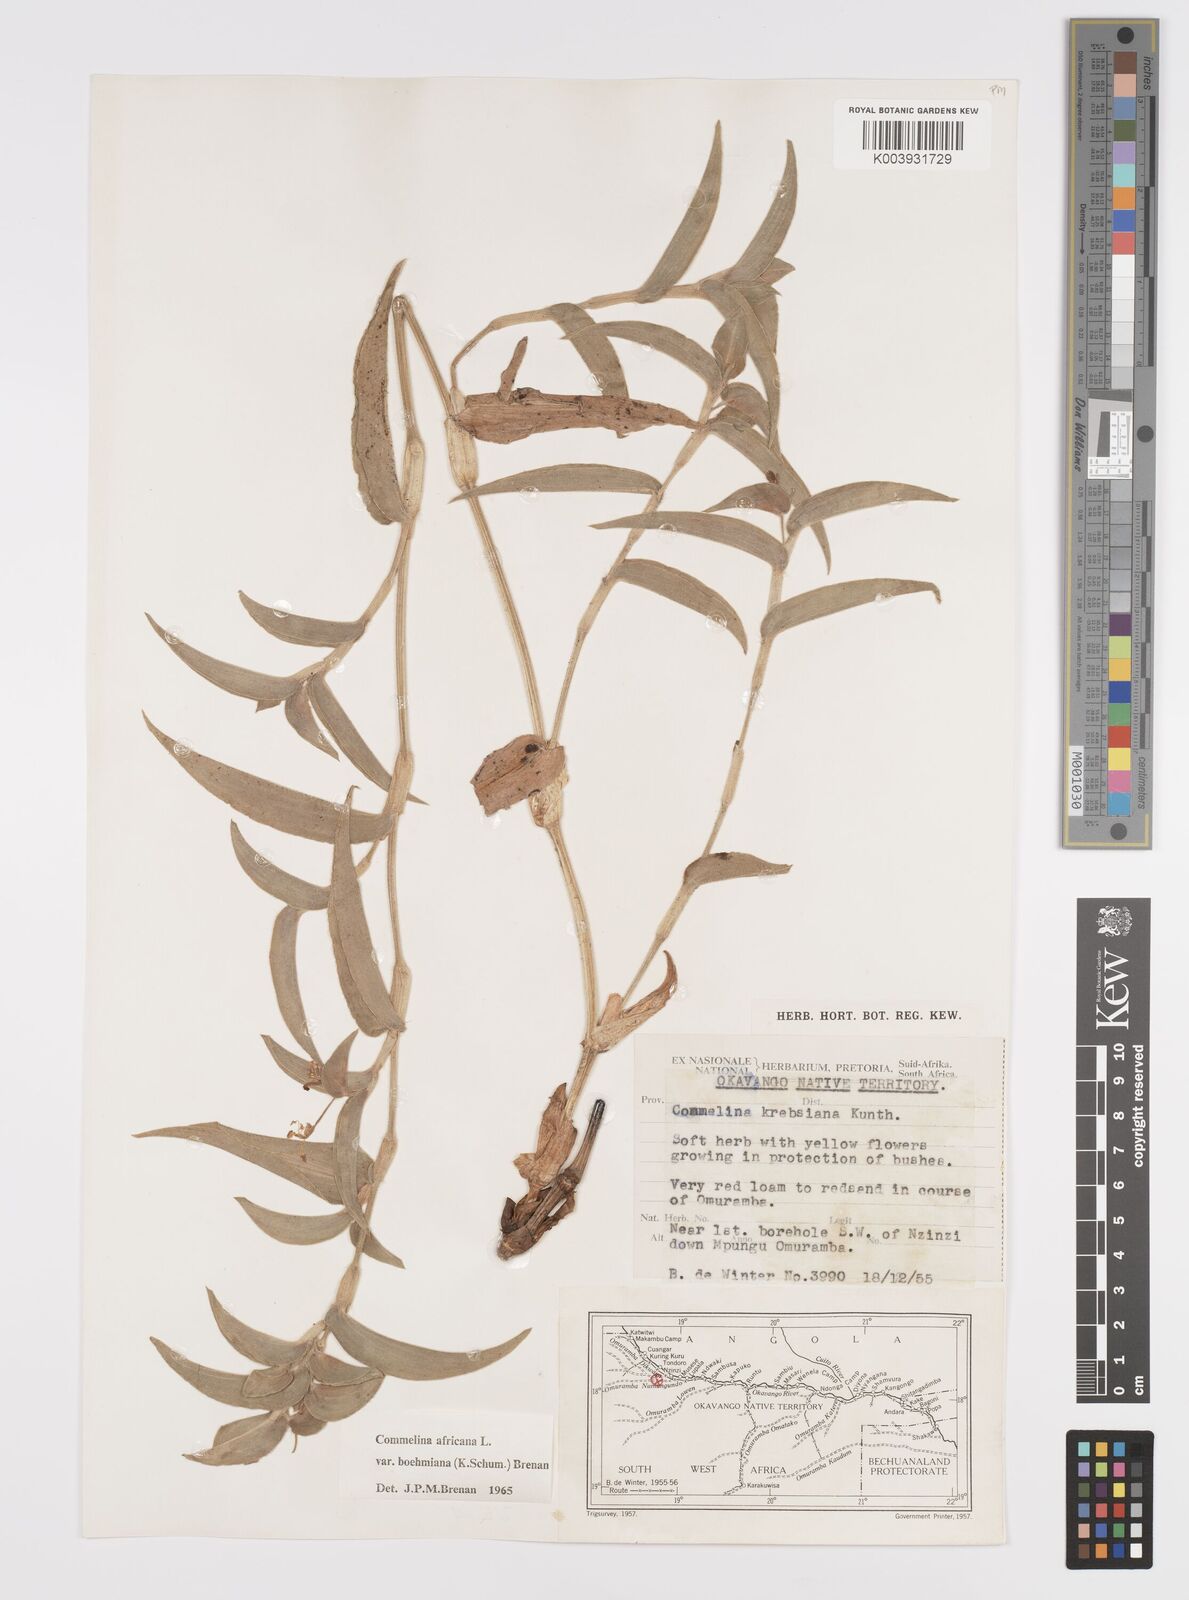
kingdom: Plantae
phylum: Tracheophyta
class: Liliopsida
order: Commelinales
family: Commelinaceae
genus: Commelina
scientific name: Commelina africana
